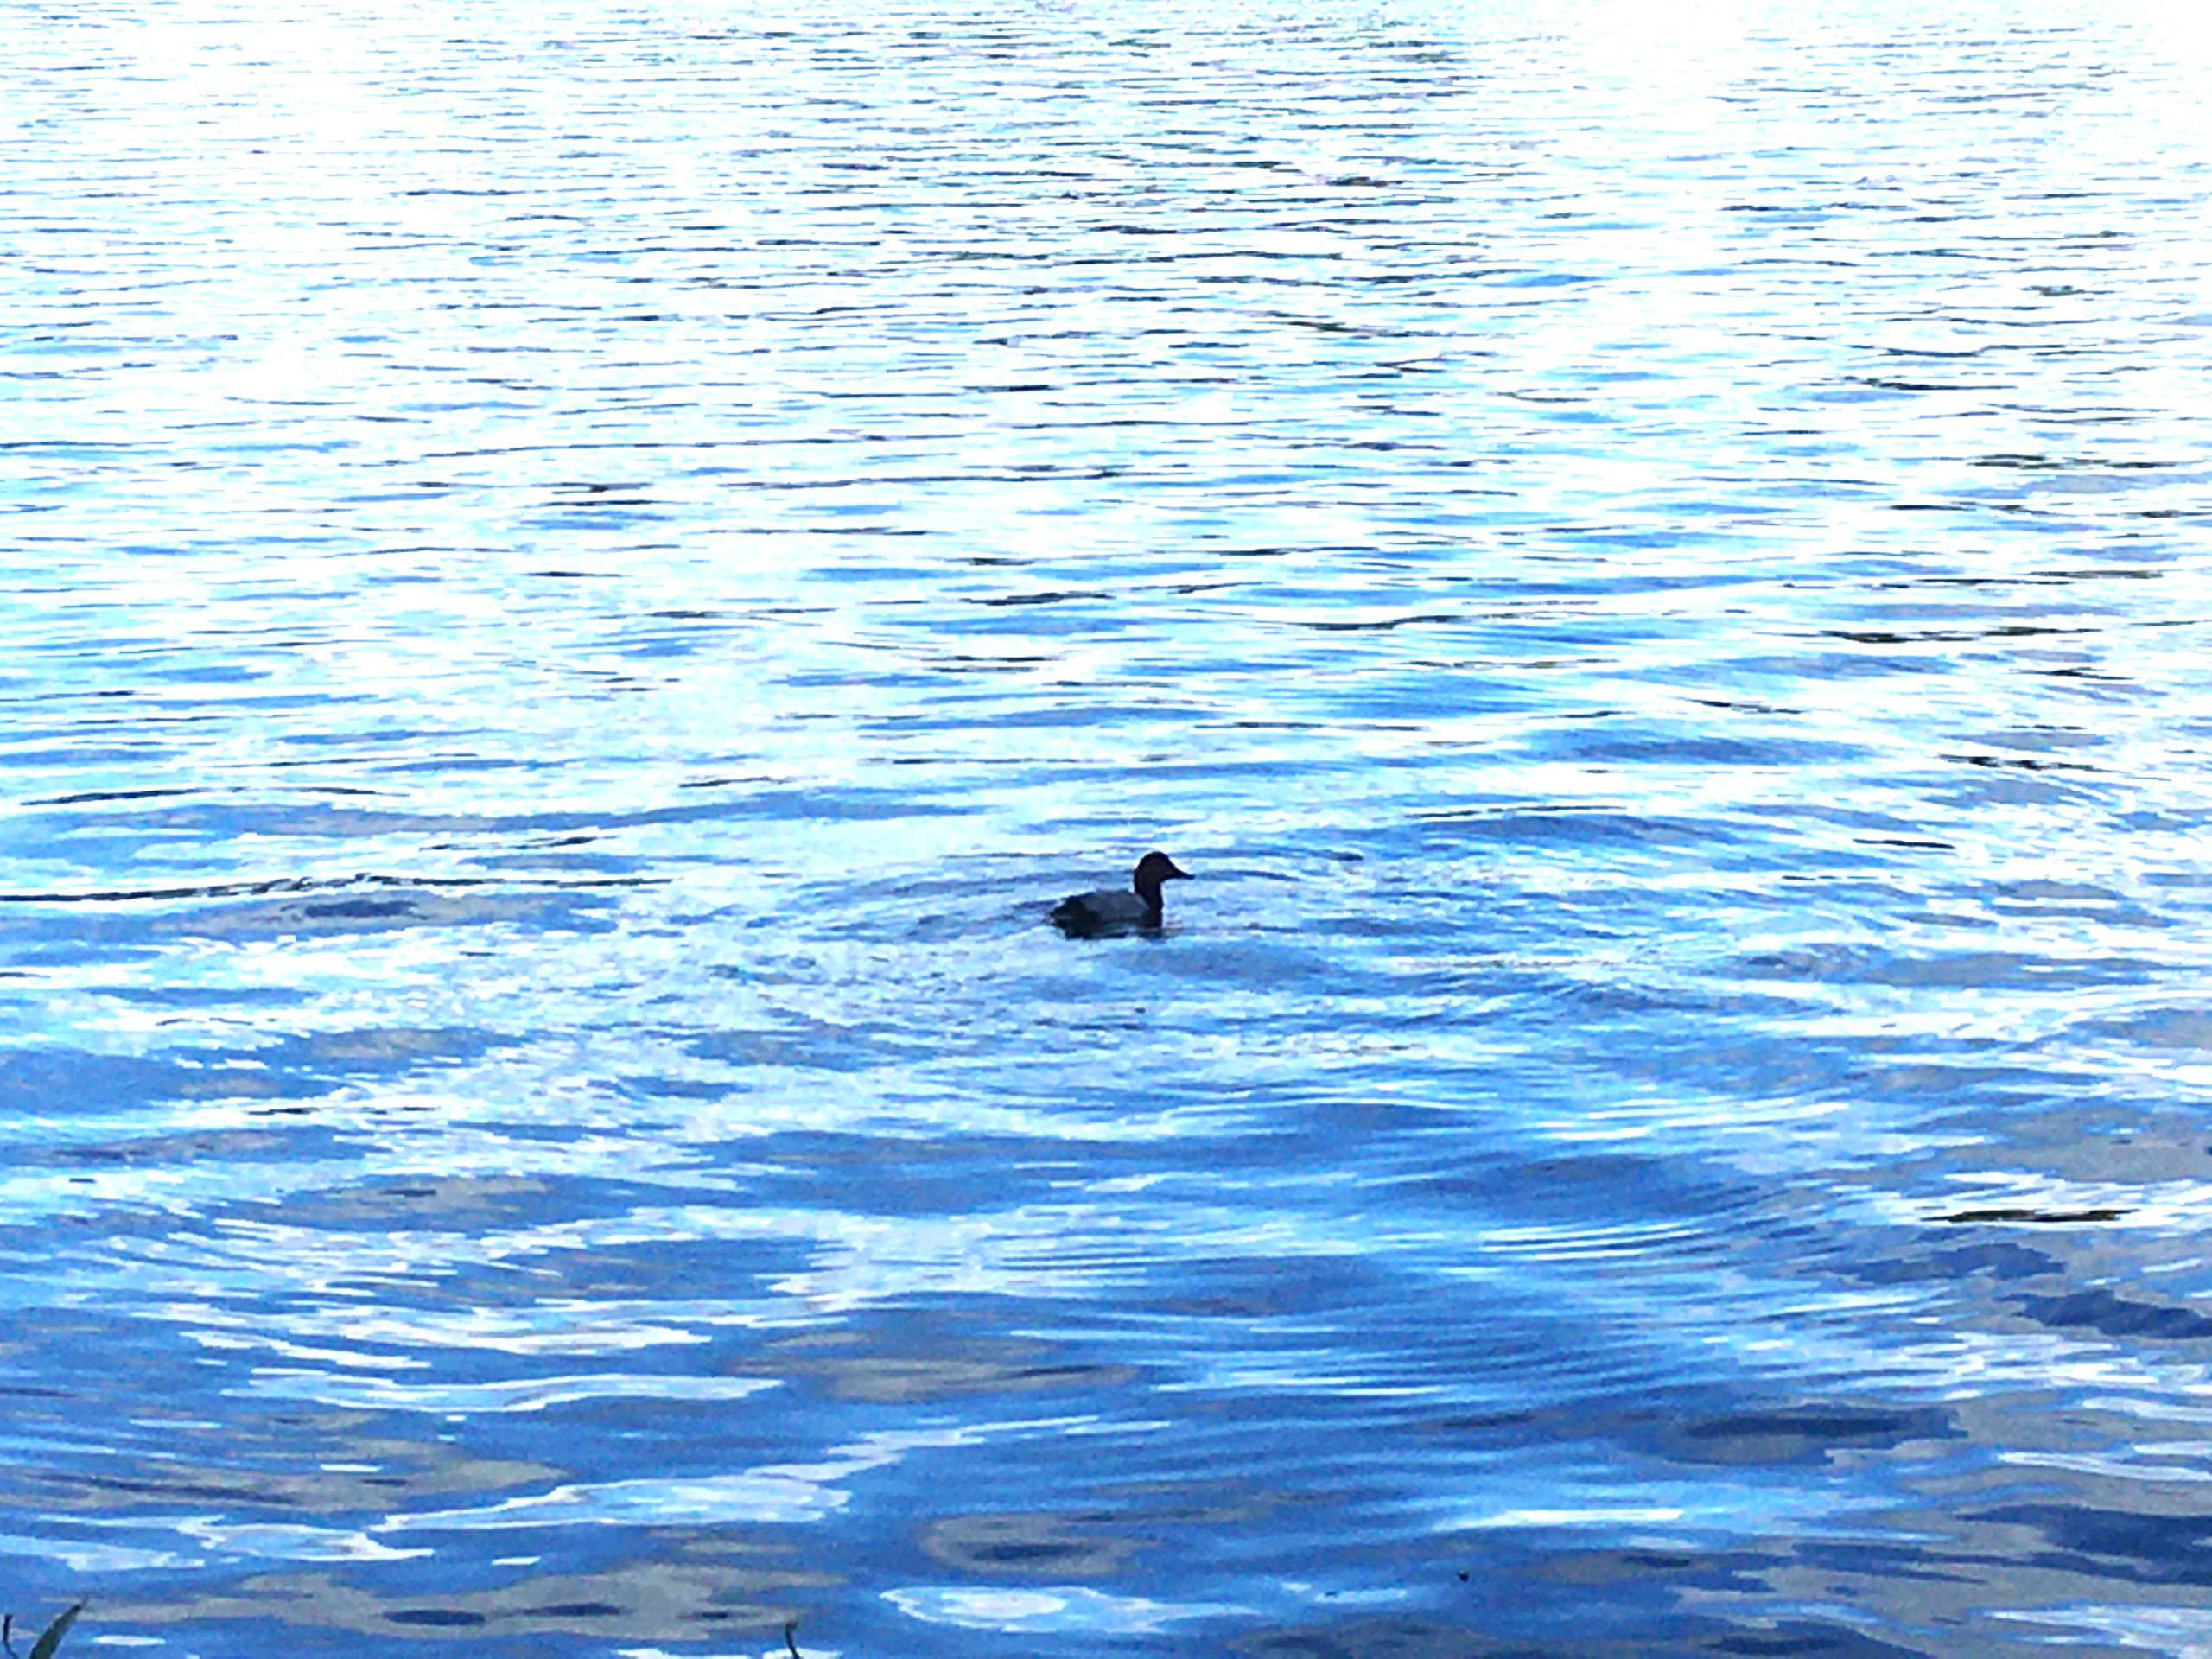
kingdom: Animalia
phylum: Chordata
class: Aves
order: Anseriformes
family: Anatidae
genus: Aythya
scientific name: Aythya ferina
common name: Taffeland
